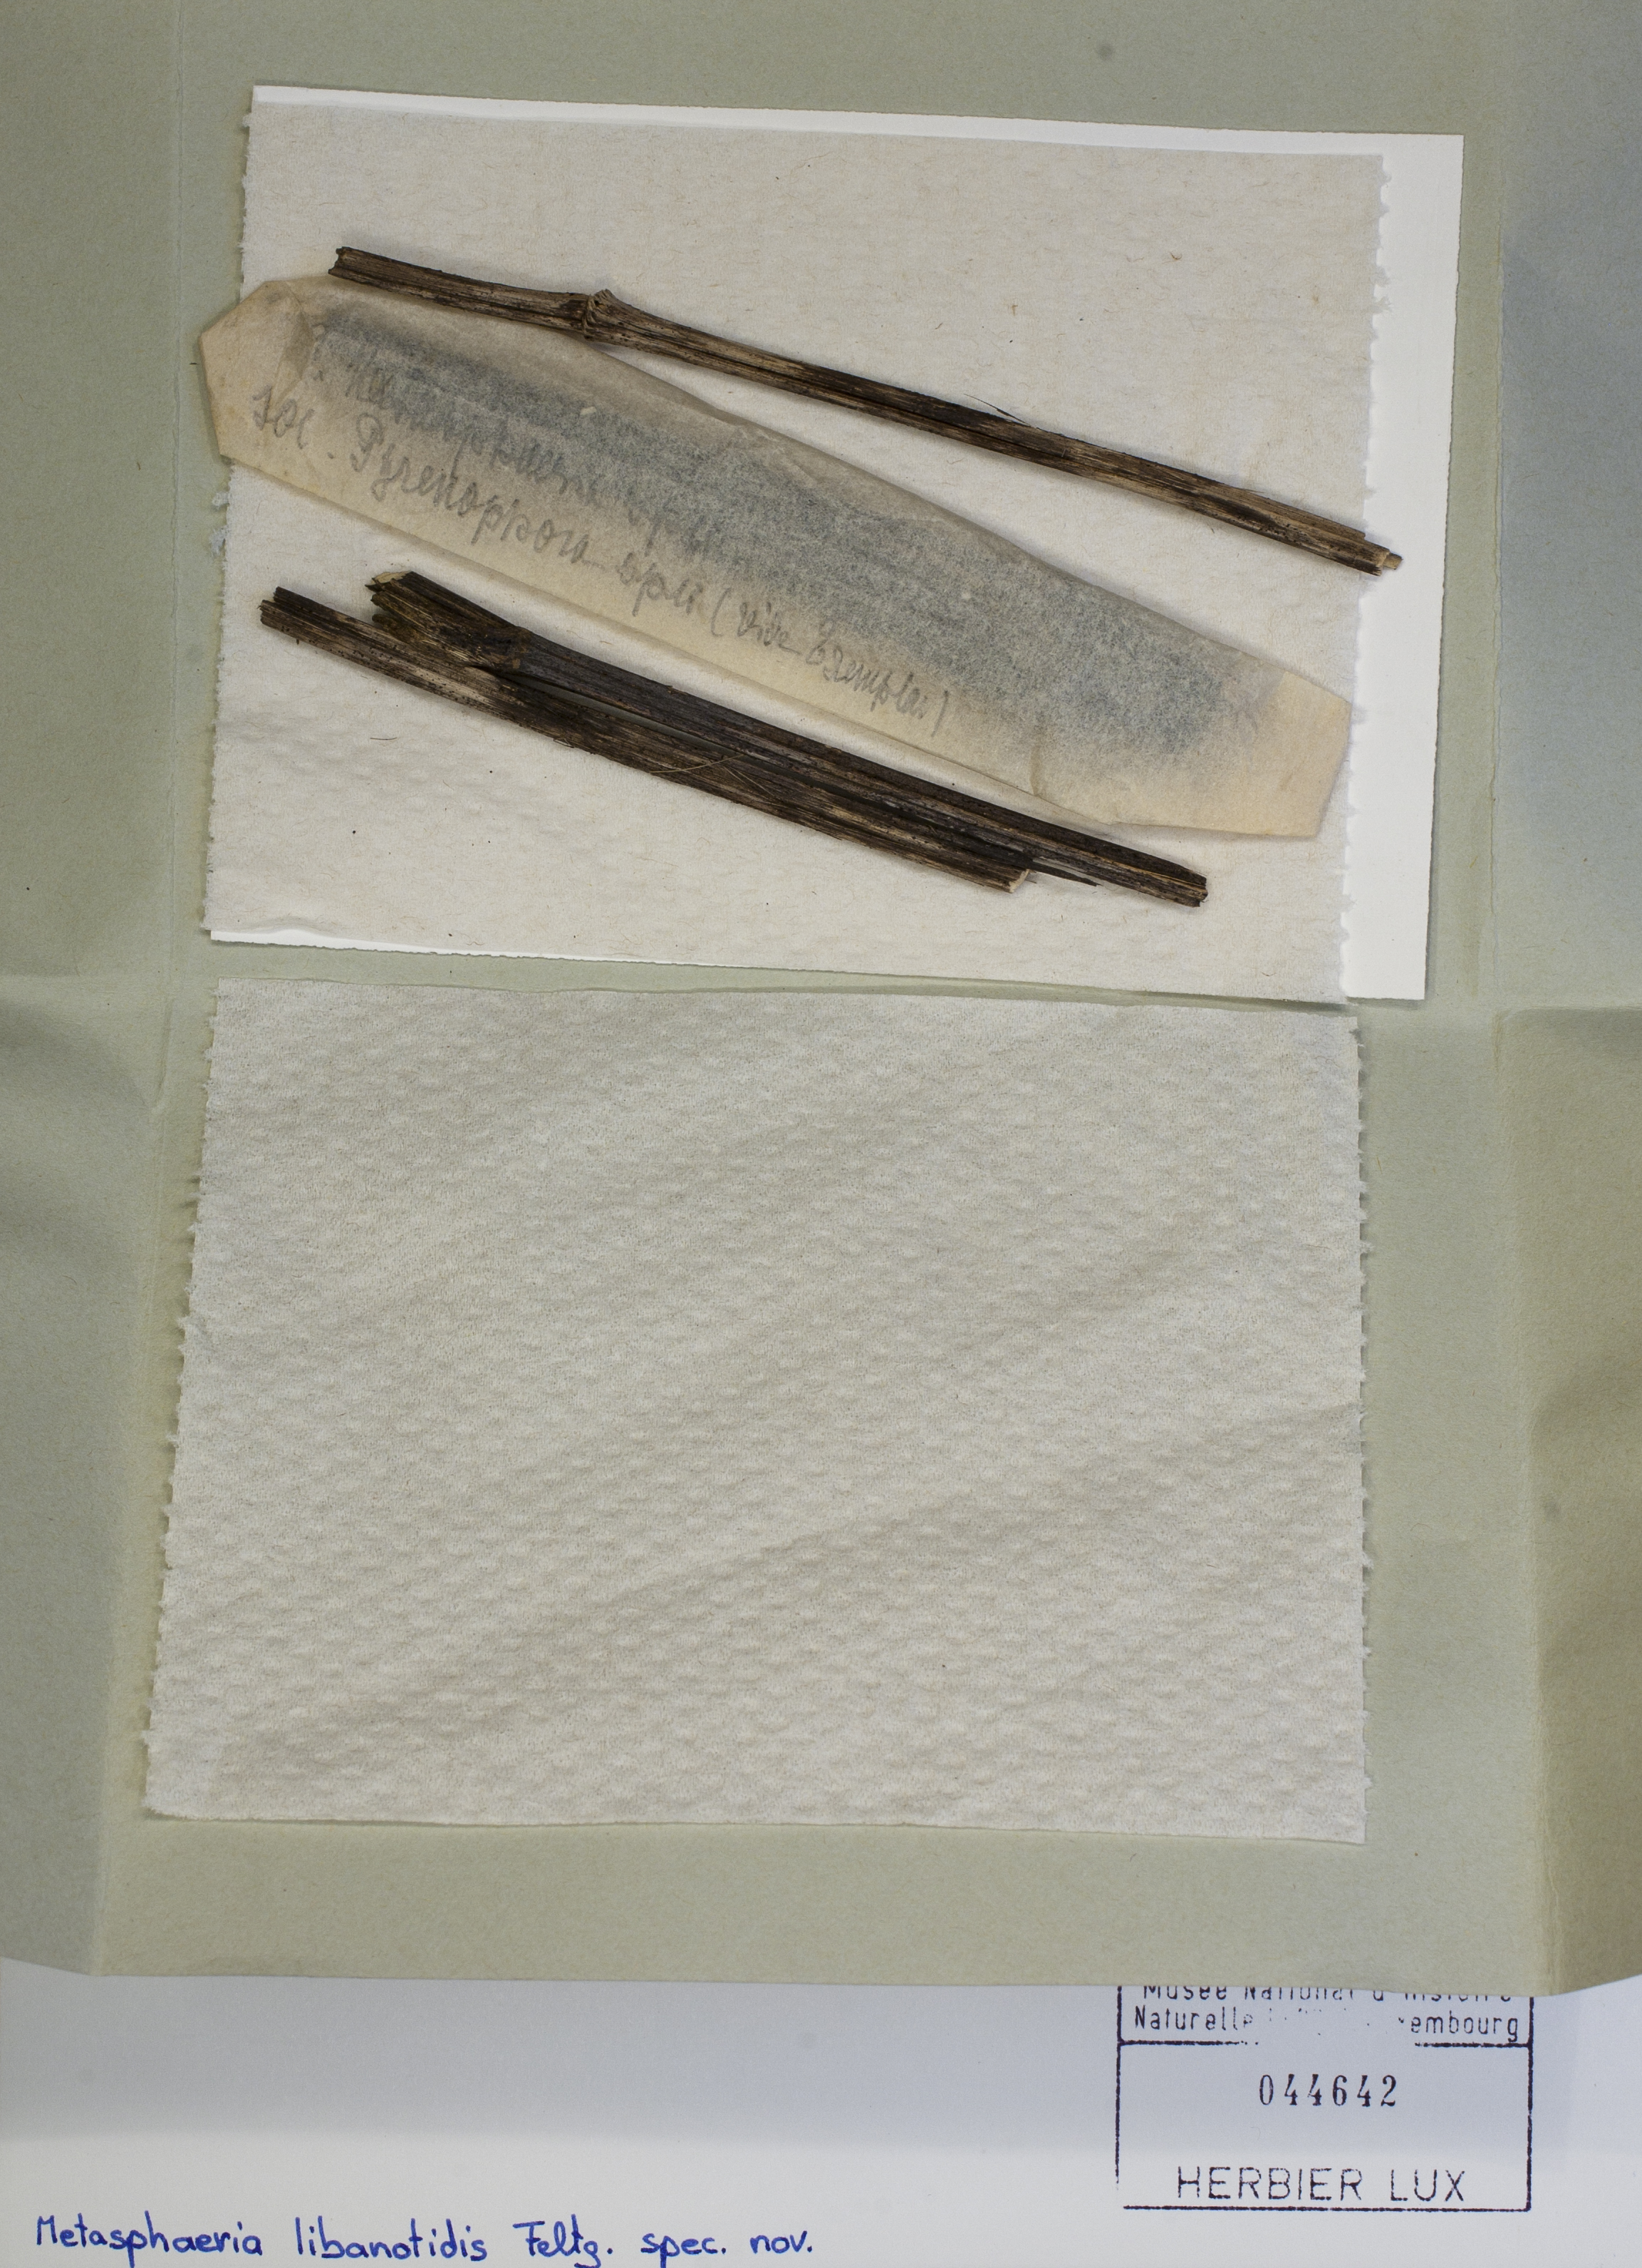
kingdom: Fungi
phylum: Ascomycota
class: Dothideomycetes
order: Dothideales
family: Saccotheciaceae
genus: Metasphaeria
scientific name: Metasphaeria
